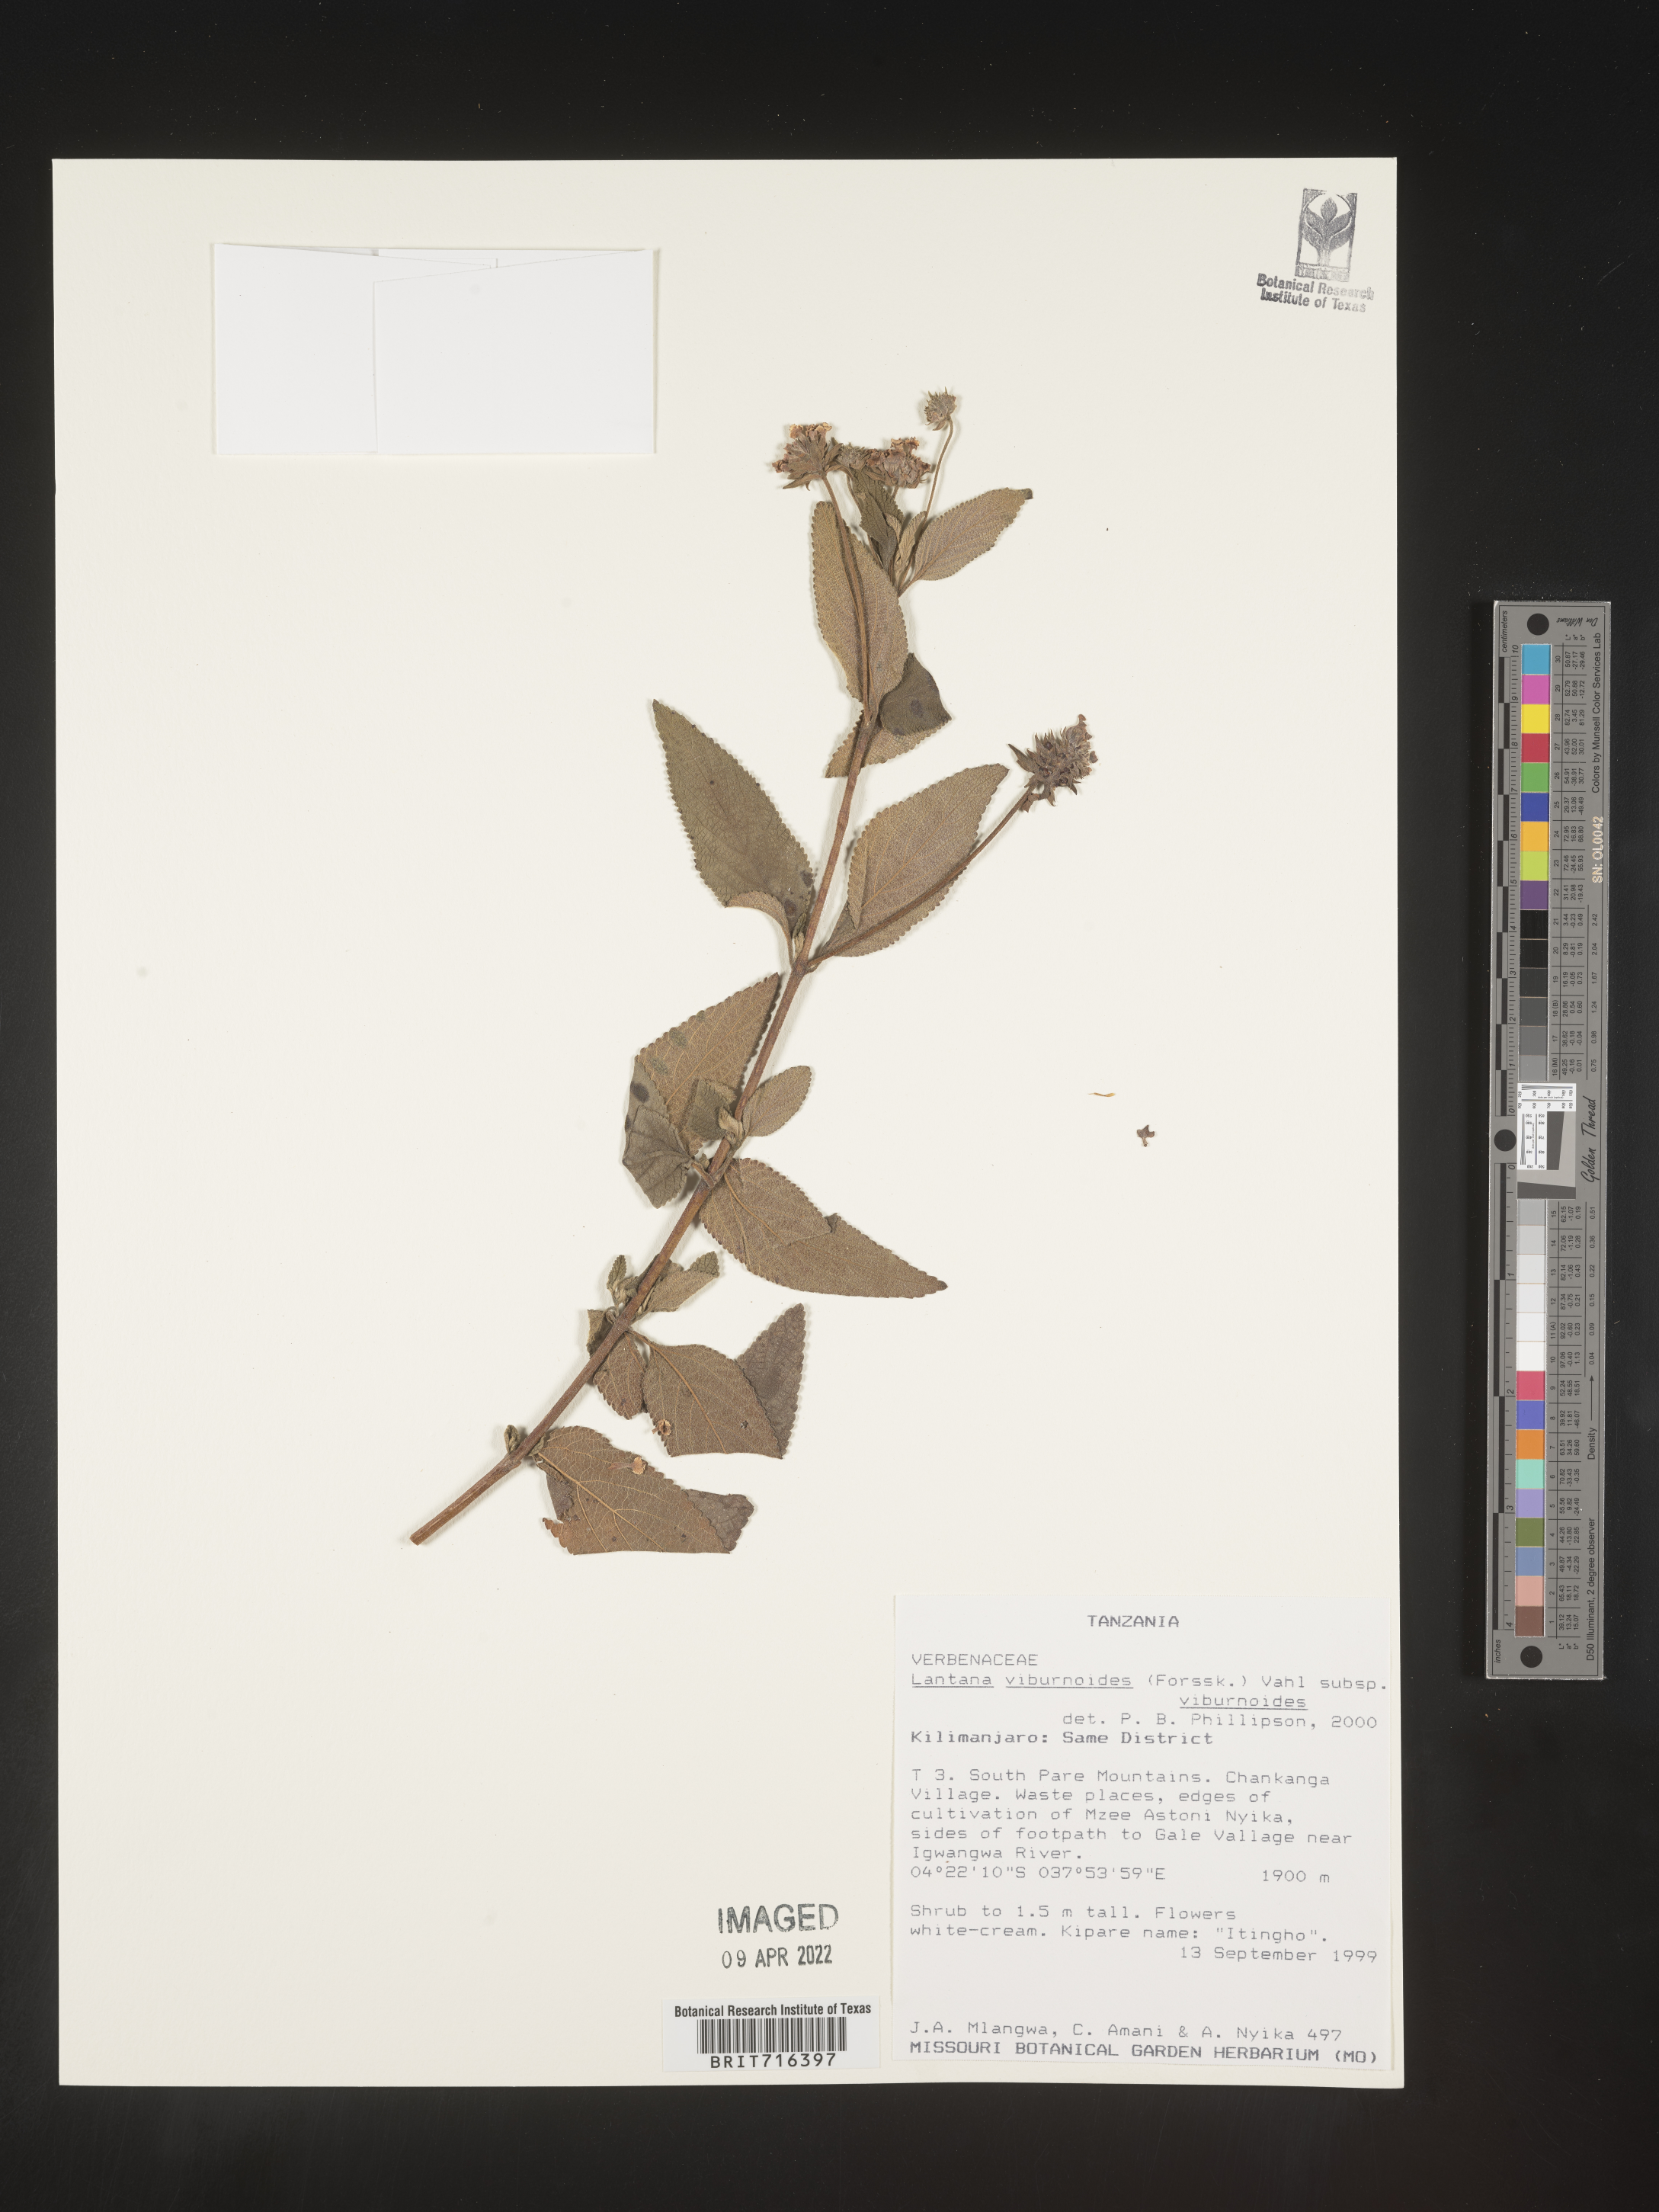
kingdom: Plantae
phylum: Tracheophyta
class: Magnoliopsida
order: Lamiales
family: Verbenaceae
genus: Lantana
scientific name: Lantana
